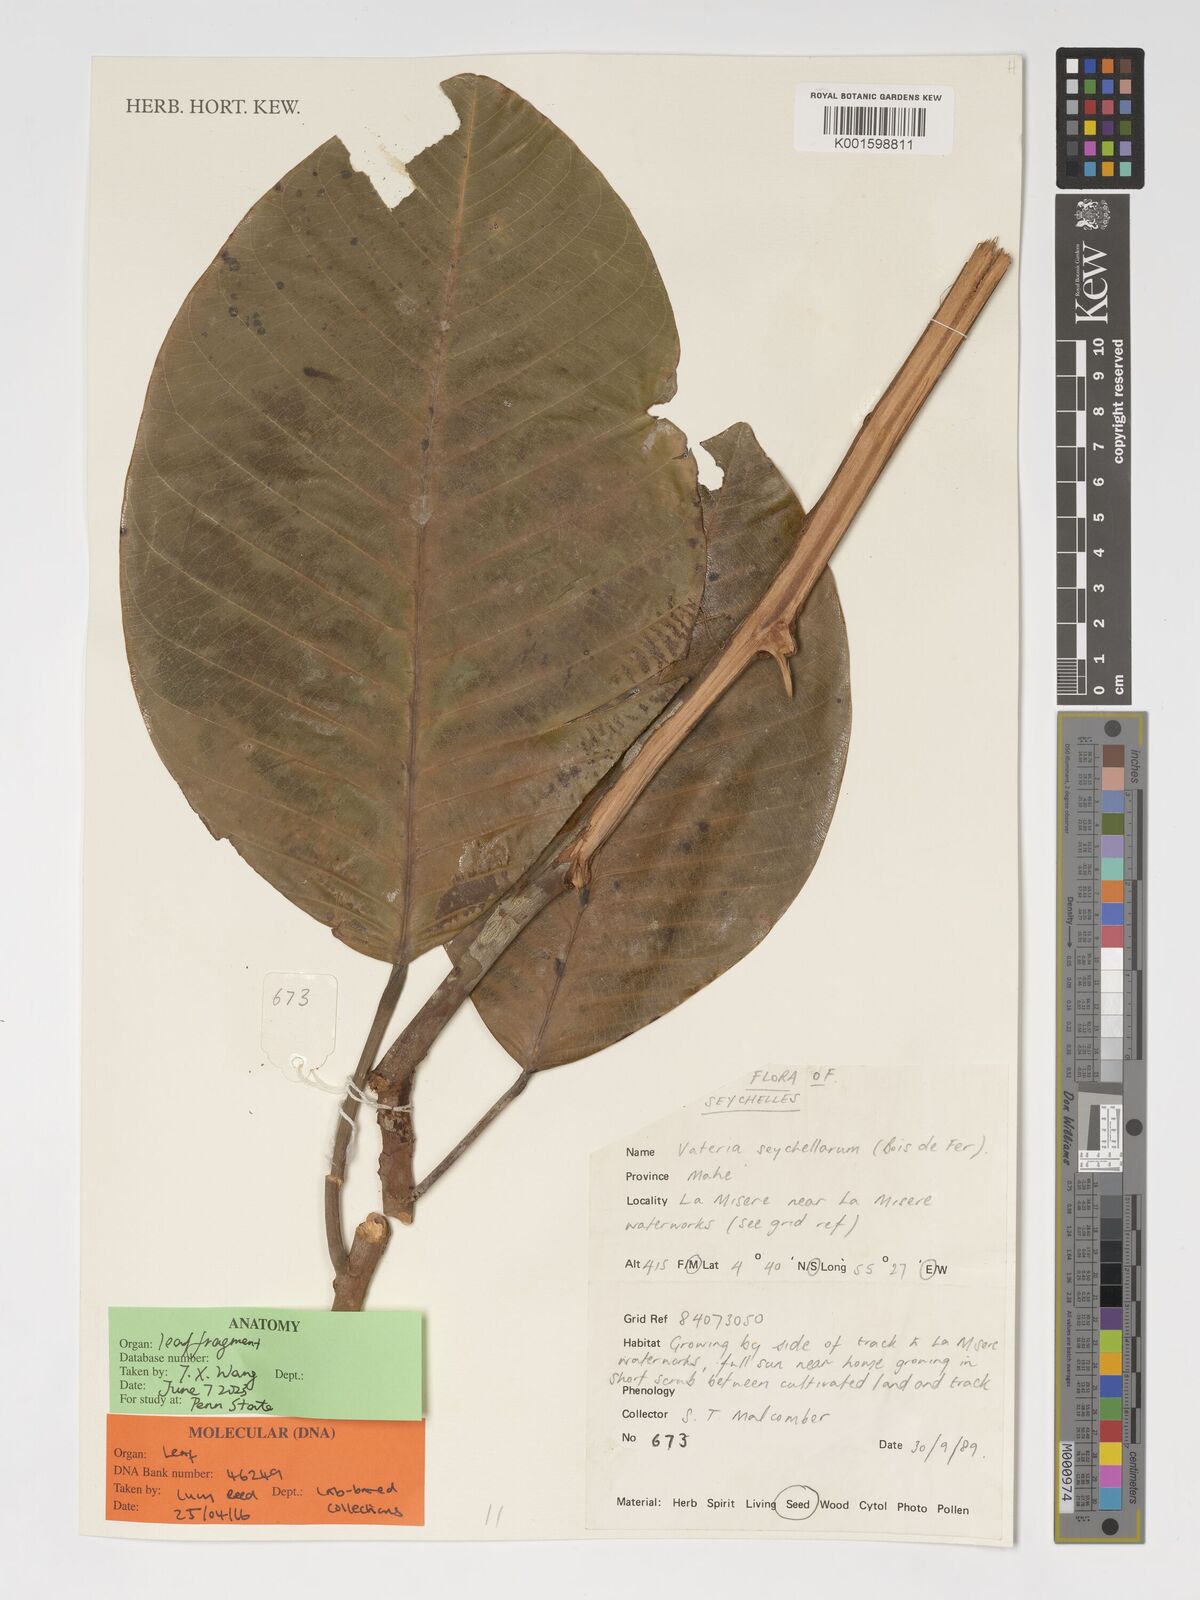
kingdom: Plantae
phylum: Tracheophyta
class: Magnoliopsida
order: Malvales
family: Dipterocarpaceae
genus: Vateriopsis
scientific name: Vateriopsis seychellarum
